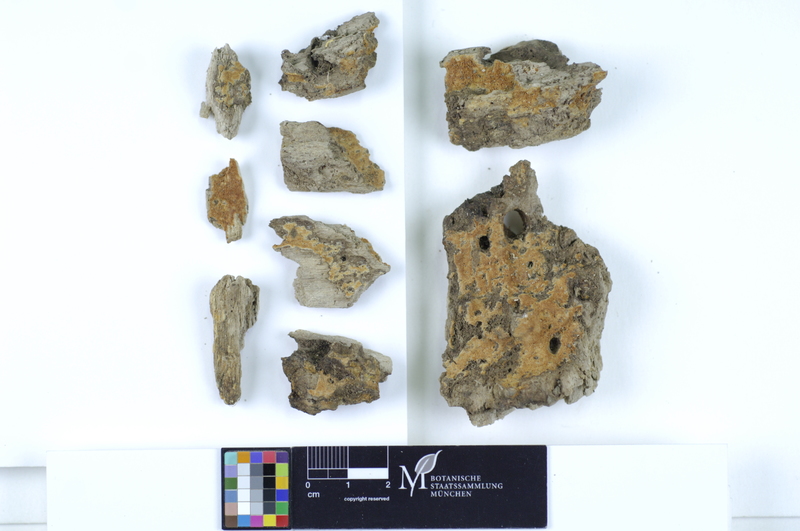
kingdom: Plantae
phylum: Tracheophyta
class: Magnoliopsida
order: Lamiales
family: Oleaceae
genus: Fraxinus
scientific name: Fraxinus
